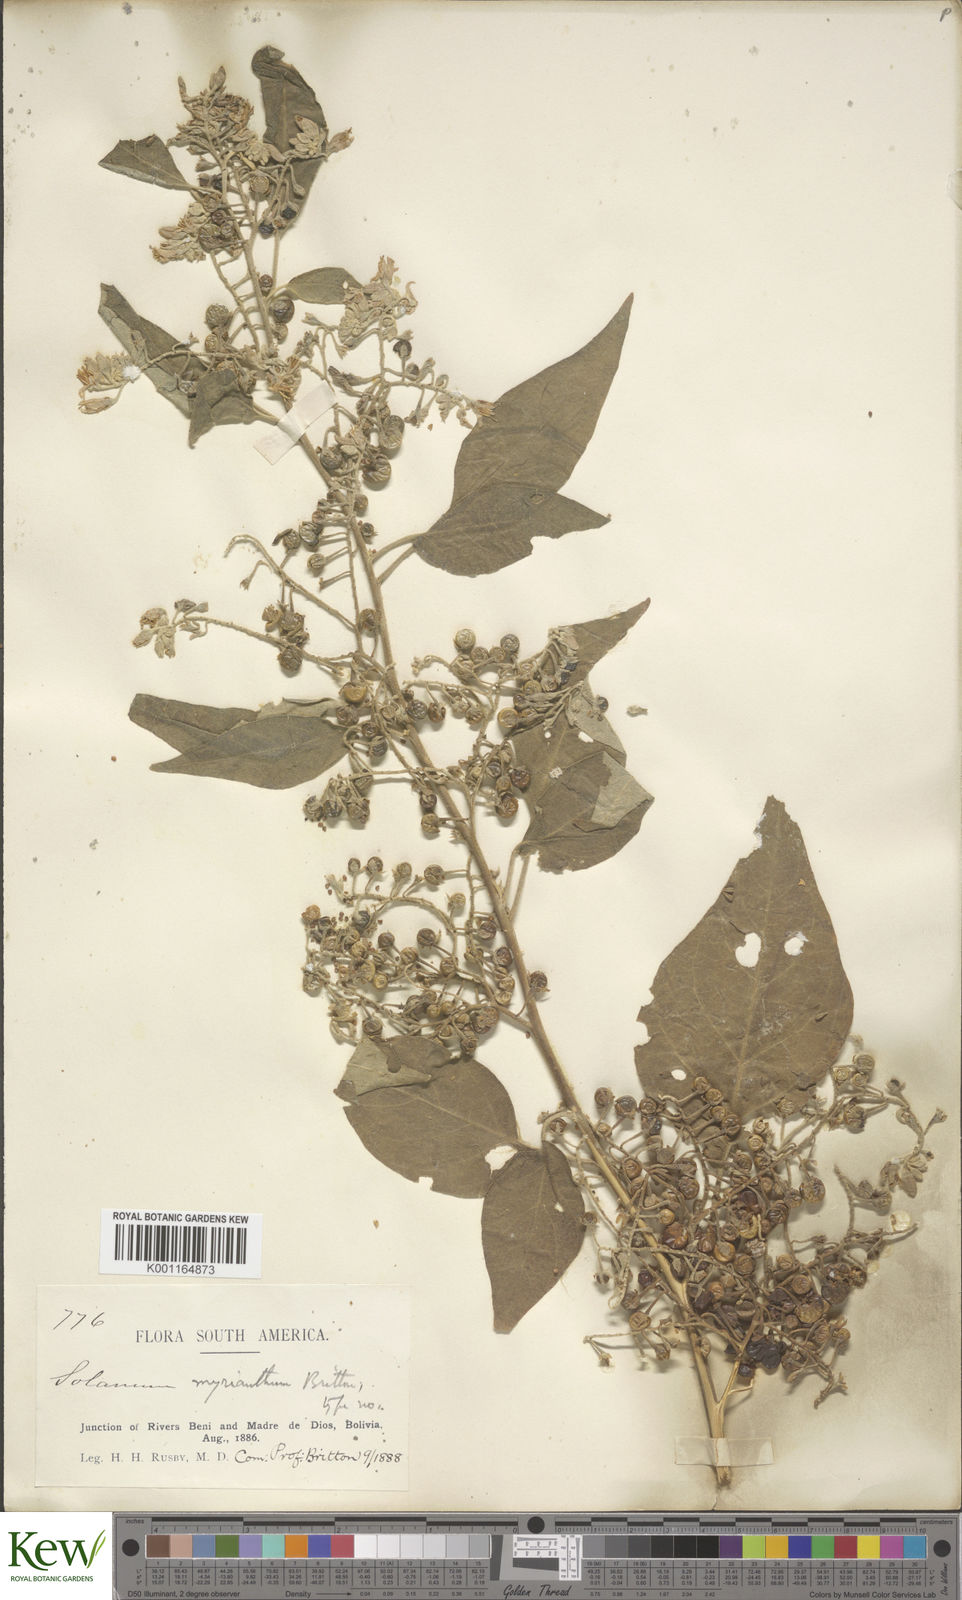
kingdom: Plantae
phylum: Tracheophyta
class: Magnoliopsida
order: Solanales
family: Solanaceae
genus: Solanum
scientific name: Solanum myriacanthum
